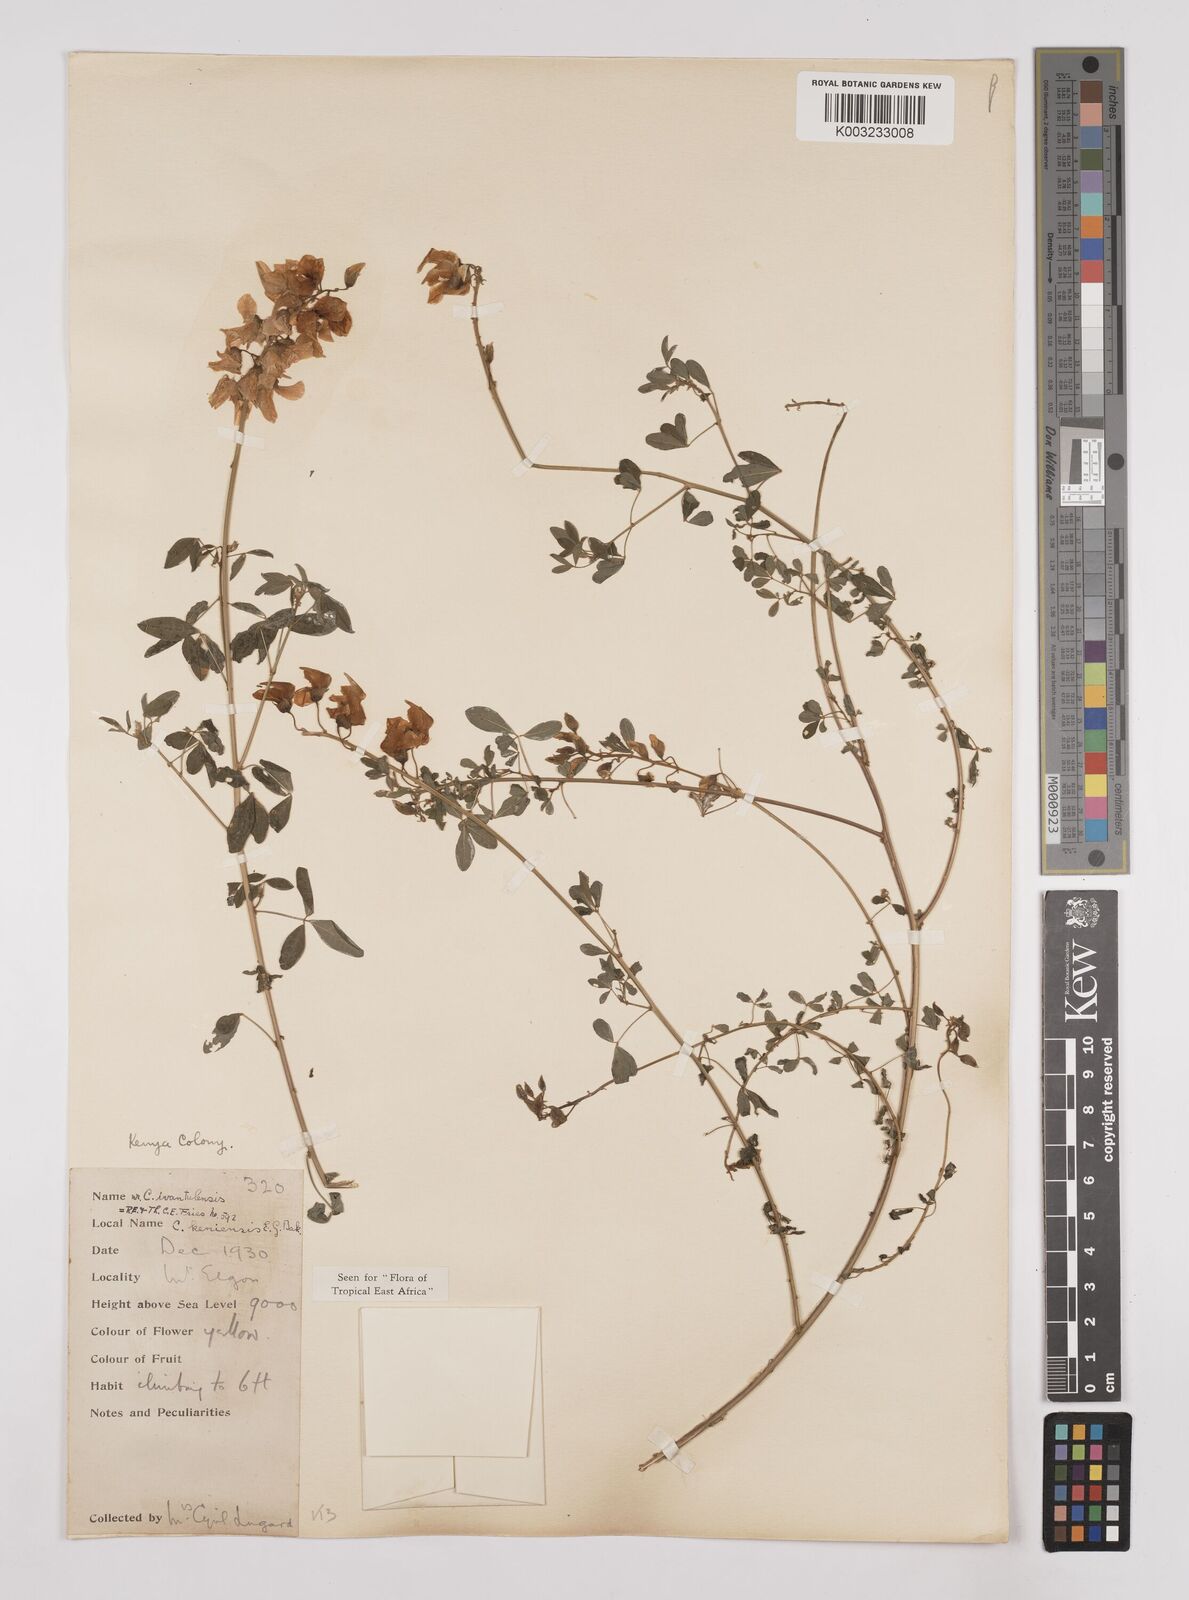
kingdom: Plantae
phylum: Tracheophyta
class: Magnoliopsida
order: Fabales
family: Fabaceae
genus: Crotalaria
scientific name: Crotalaria keniensis
